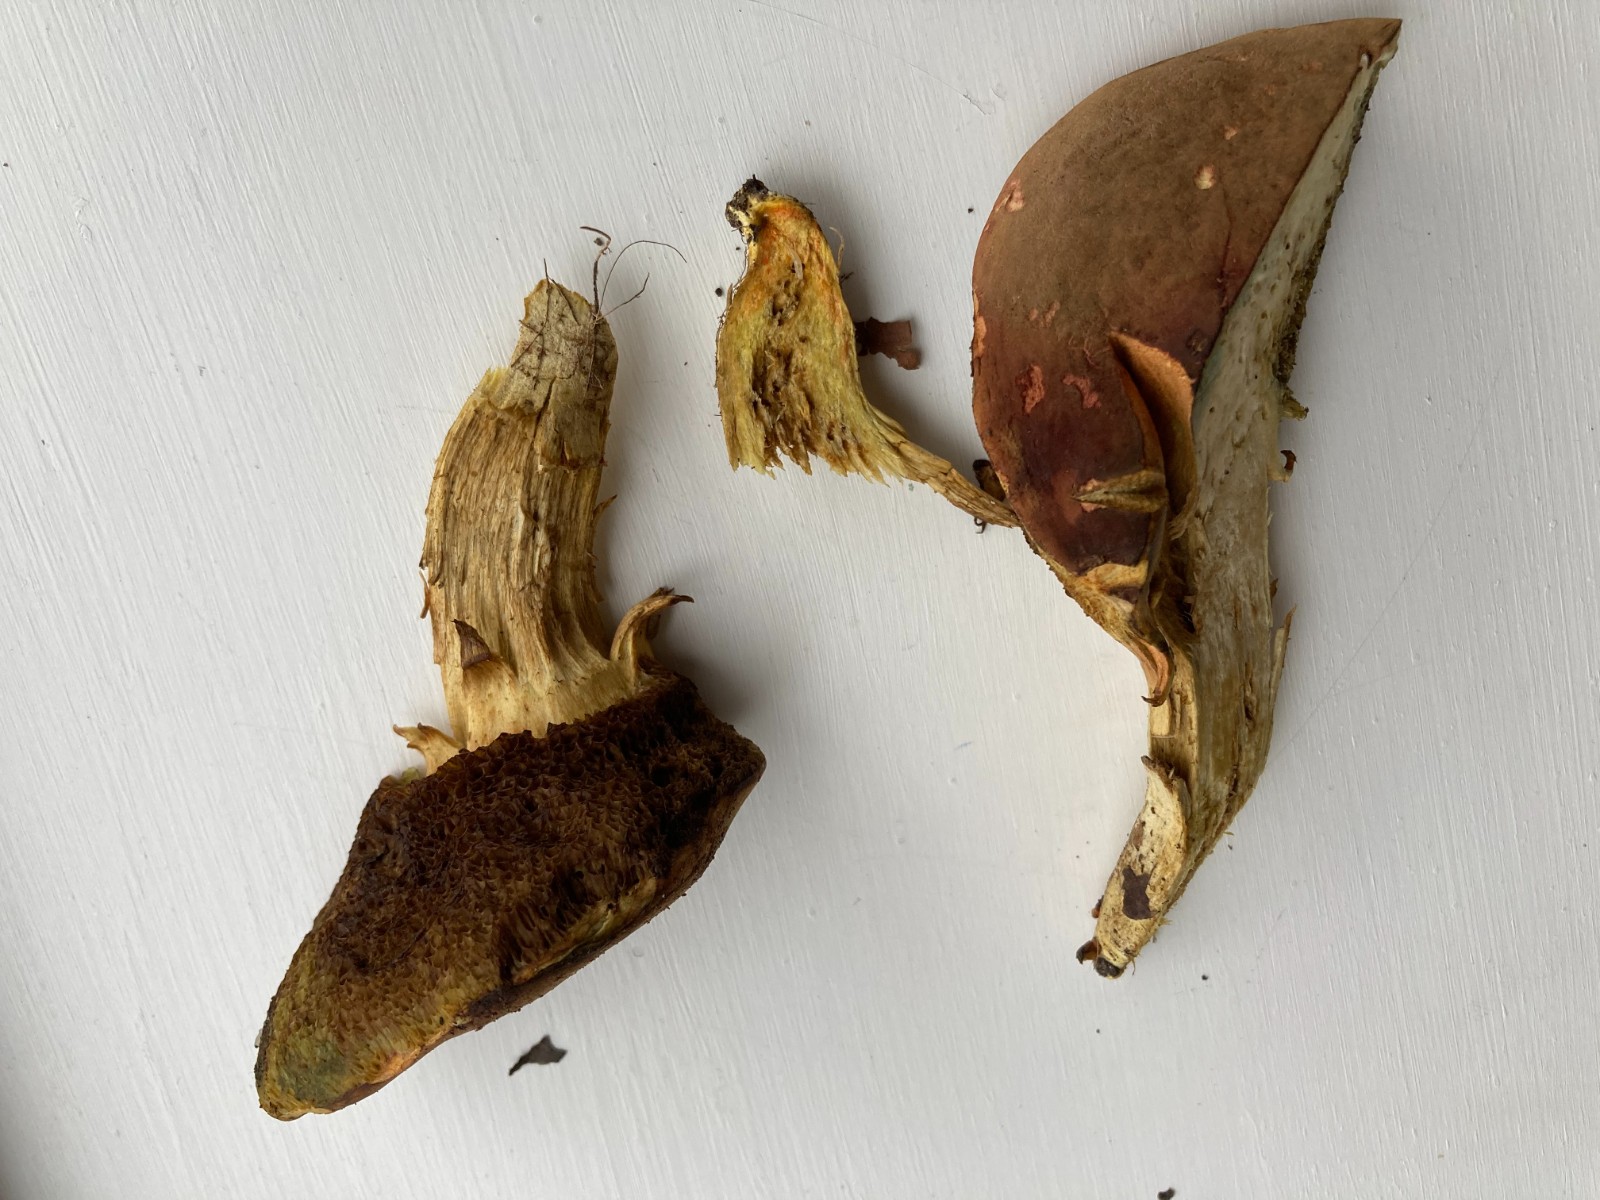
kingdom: Fungi
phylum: Basidiomycota
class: Agaricomycetes
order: Boletales
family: Boletaceae
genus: Hortiboletus
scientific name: Hortiboletus engelii
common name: fersken-rørhat
